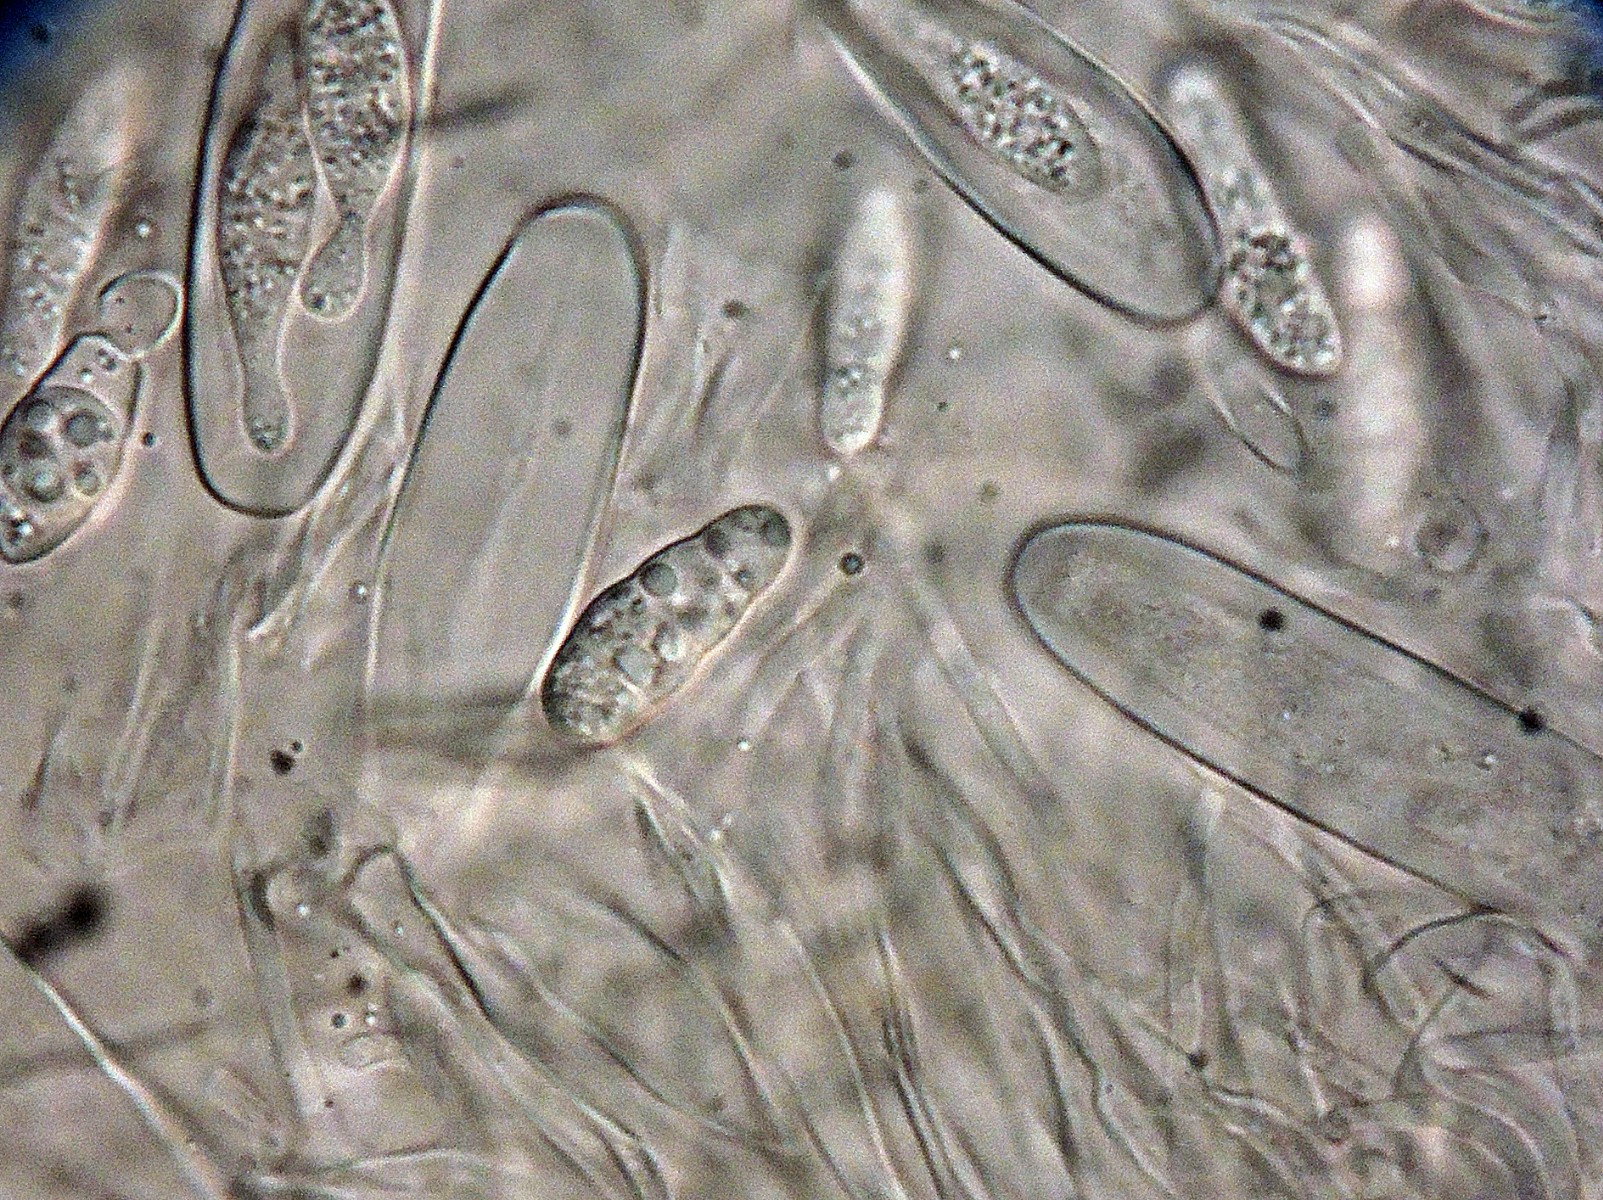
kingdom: Fungi
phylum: Ascomycota
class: Sordariomycetes
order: Xylariales
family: Hyponectriaceae
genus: Exarmidium
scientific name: Exarmidium inclusum
